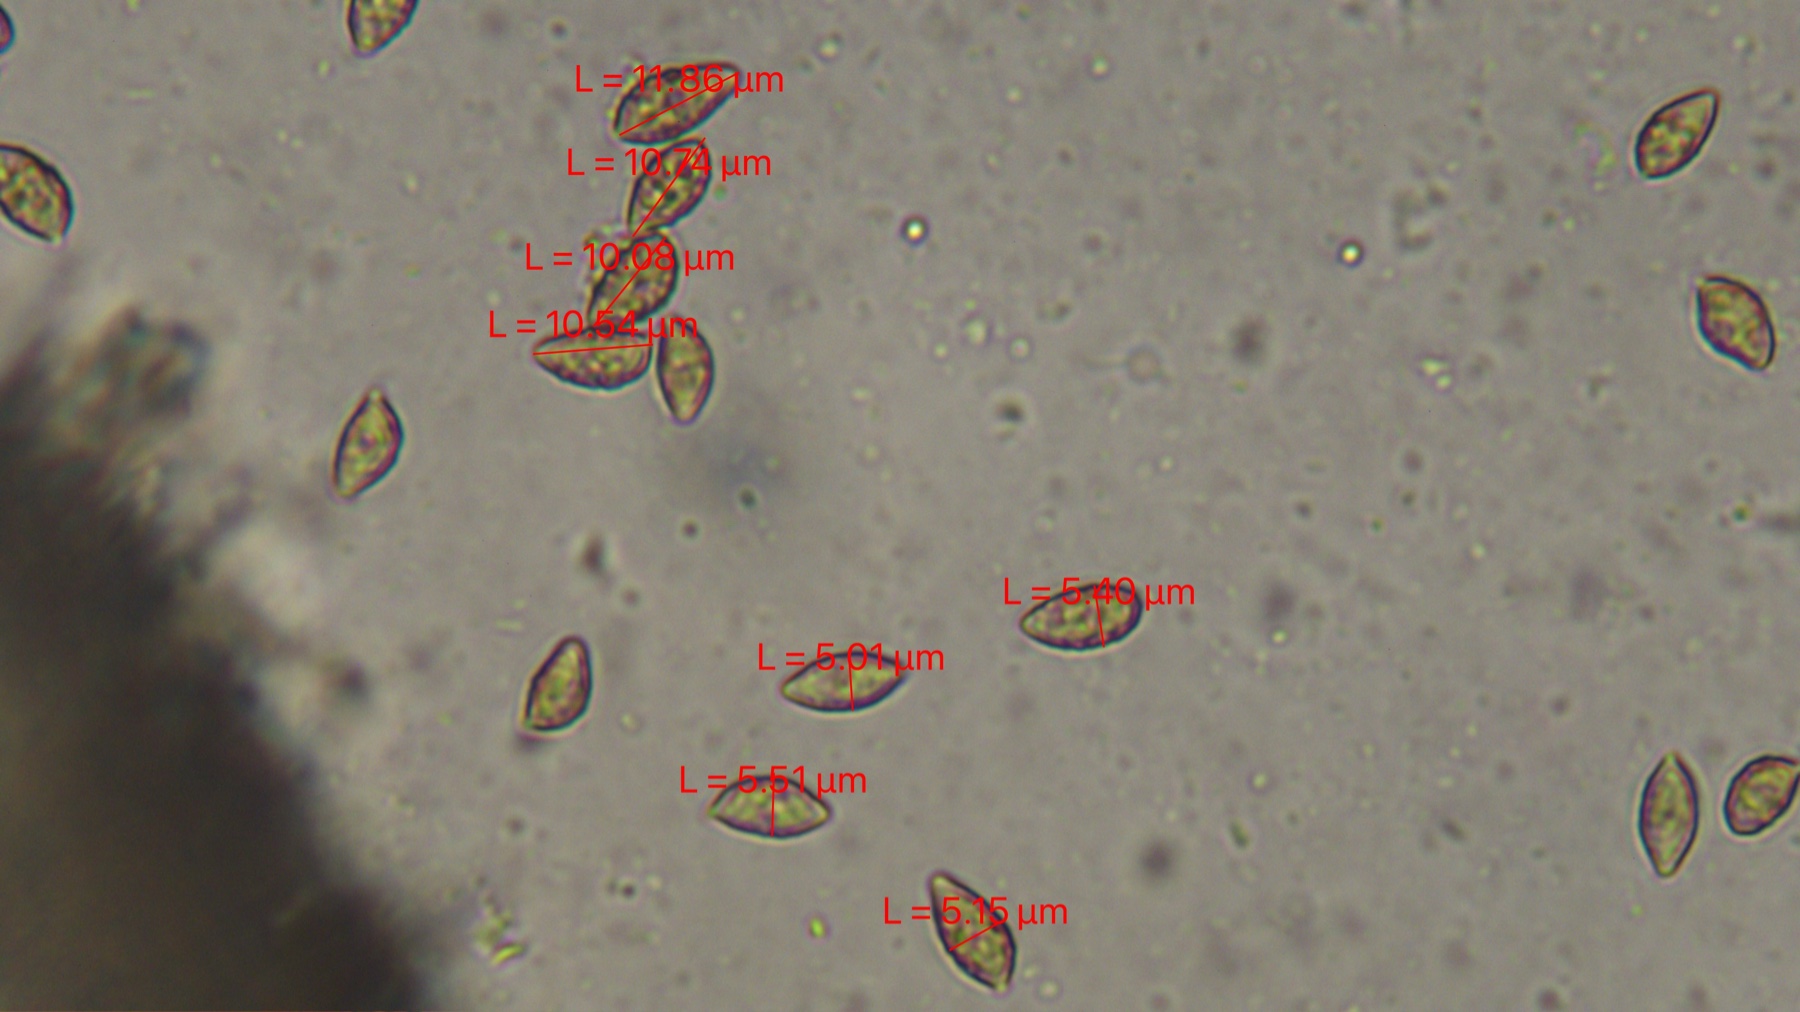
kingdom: Fungi
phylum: Basidiomycota
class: Agaricomycetes
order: Agaricales
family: Hymenogastraceae
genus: Naucoria
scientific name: Naucoria escharioides
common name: lys elle-knaphat
